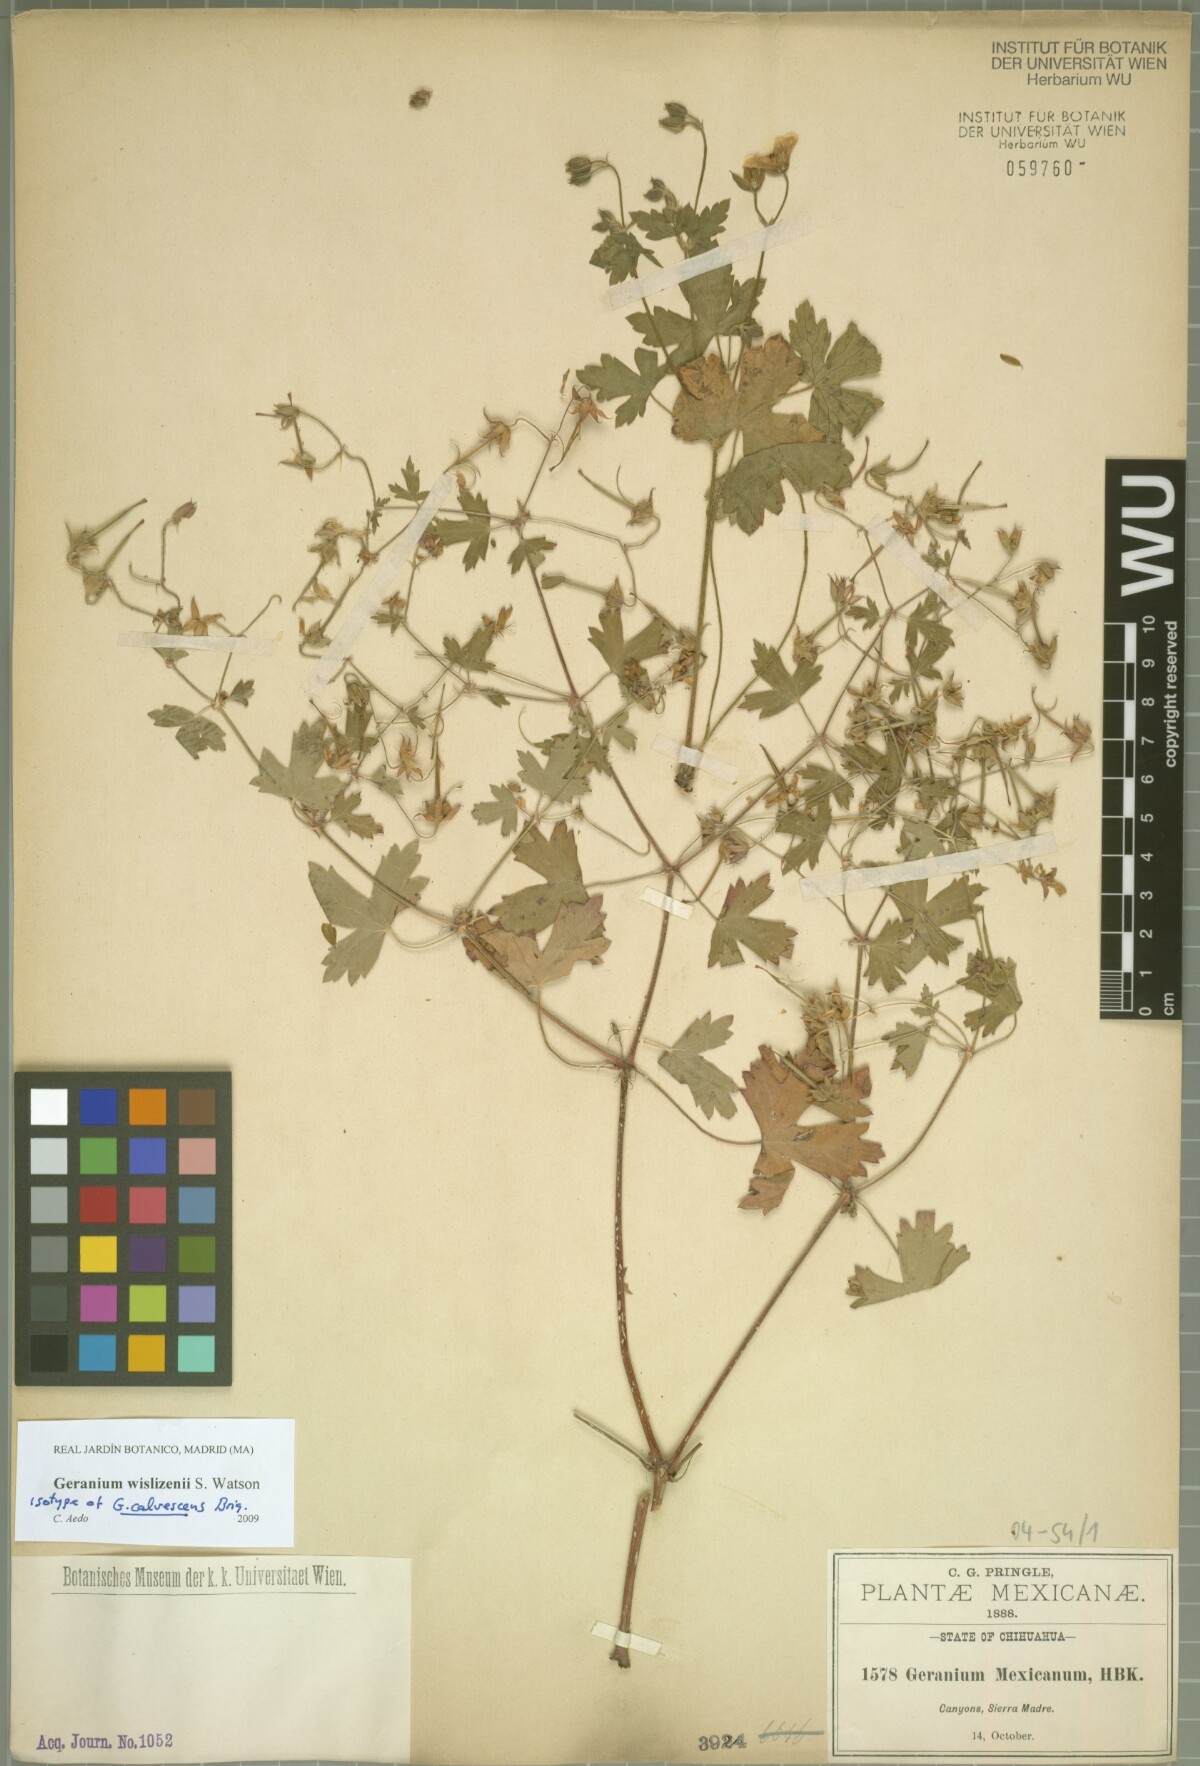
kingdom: Plantae
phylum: Tracheophyta
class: Magnoliopsida
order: Geraniales
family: Geraniaceae
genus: Geranium
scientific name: Geranium wislizeni
